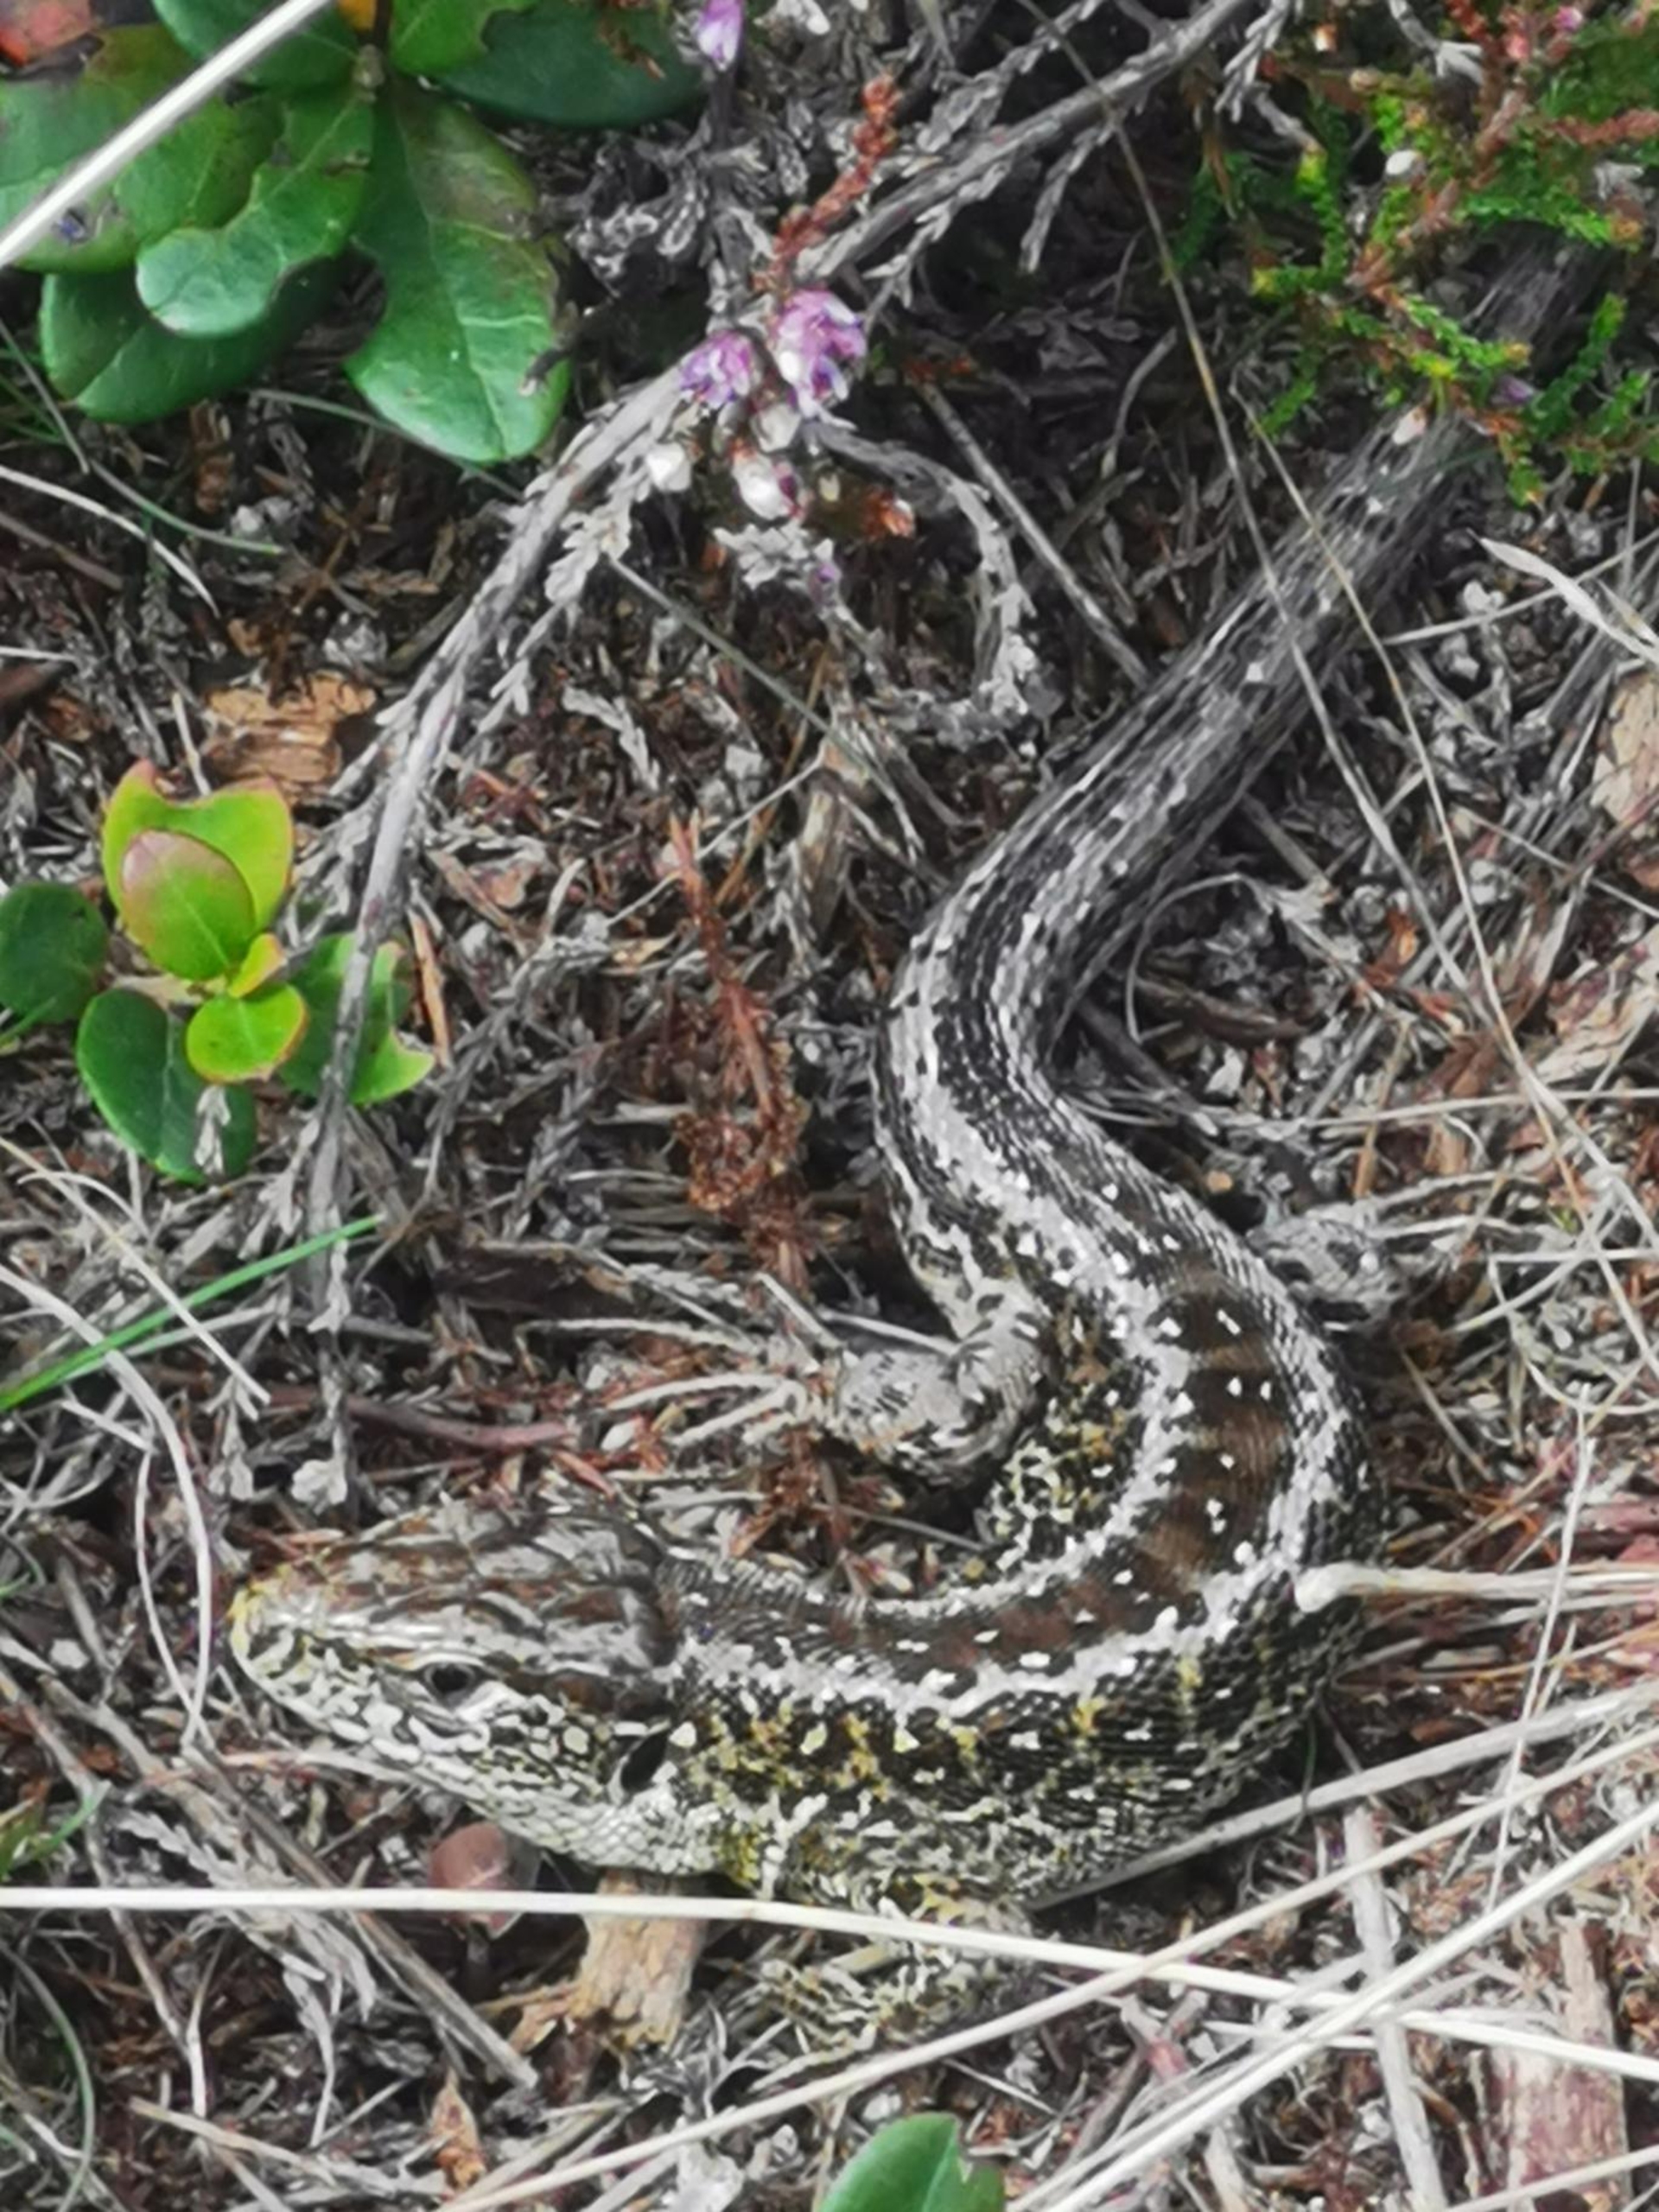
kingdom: Animalia
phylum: Chordata
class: Squamata
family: Lacertidae
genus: Lacerta
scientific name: Lacerta agilis
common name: Markfirben
